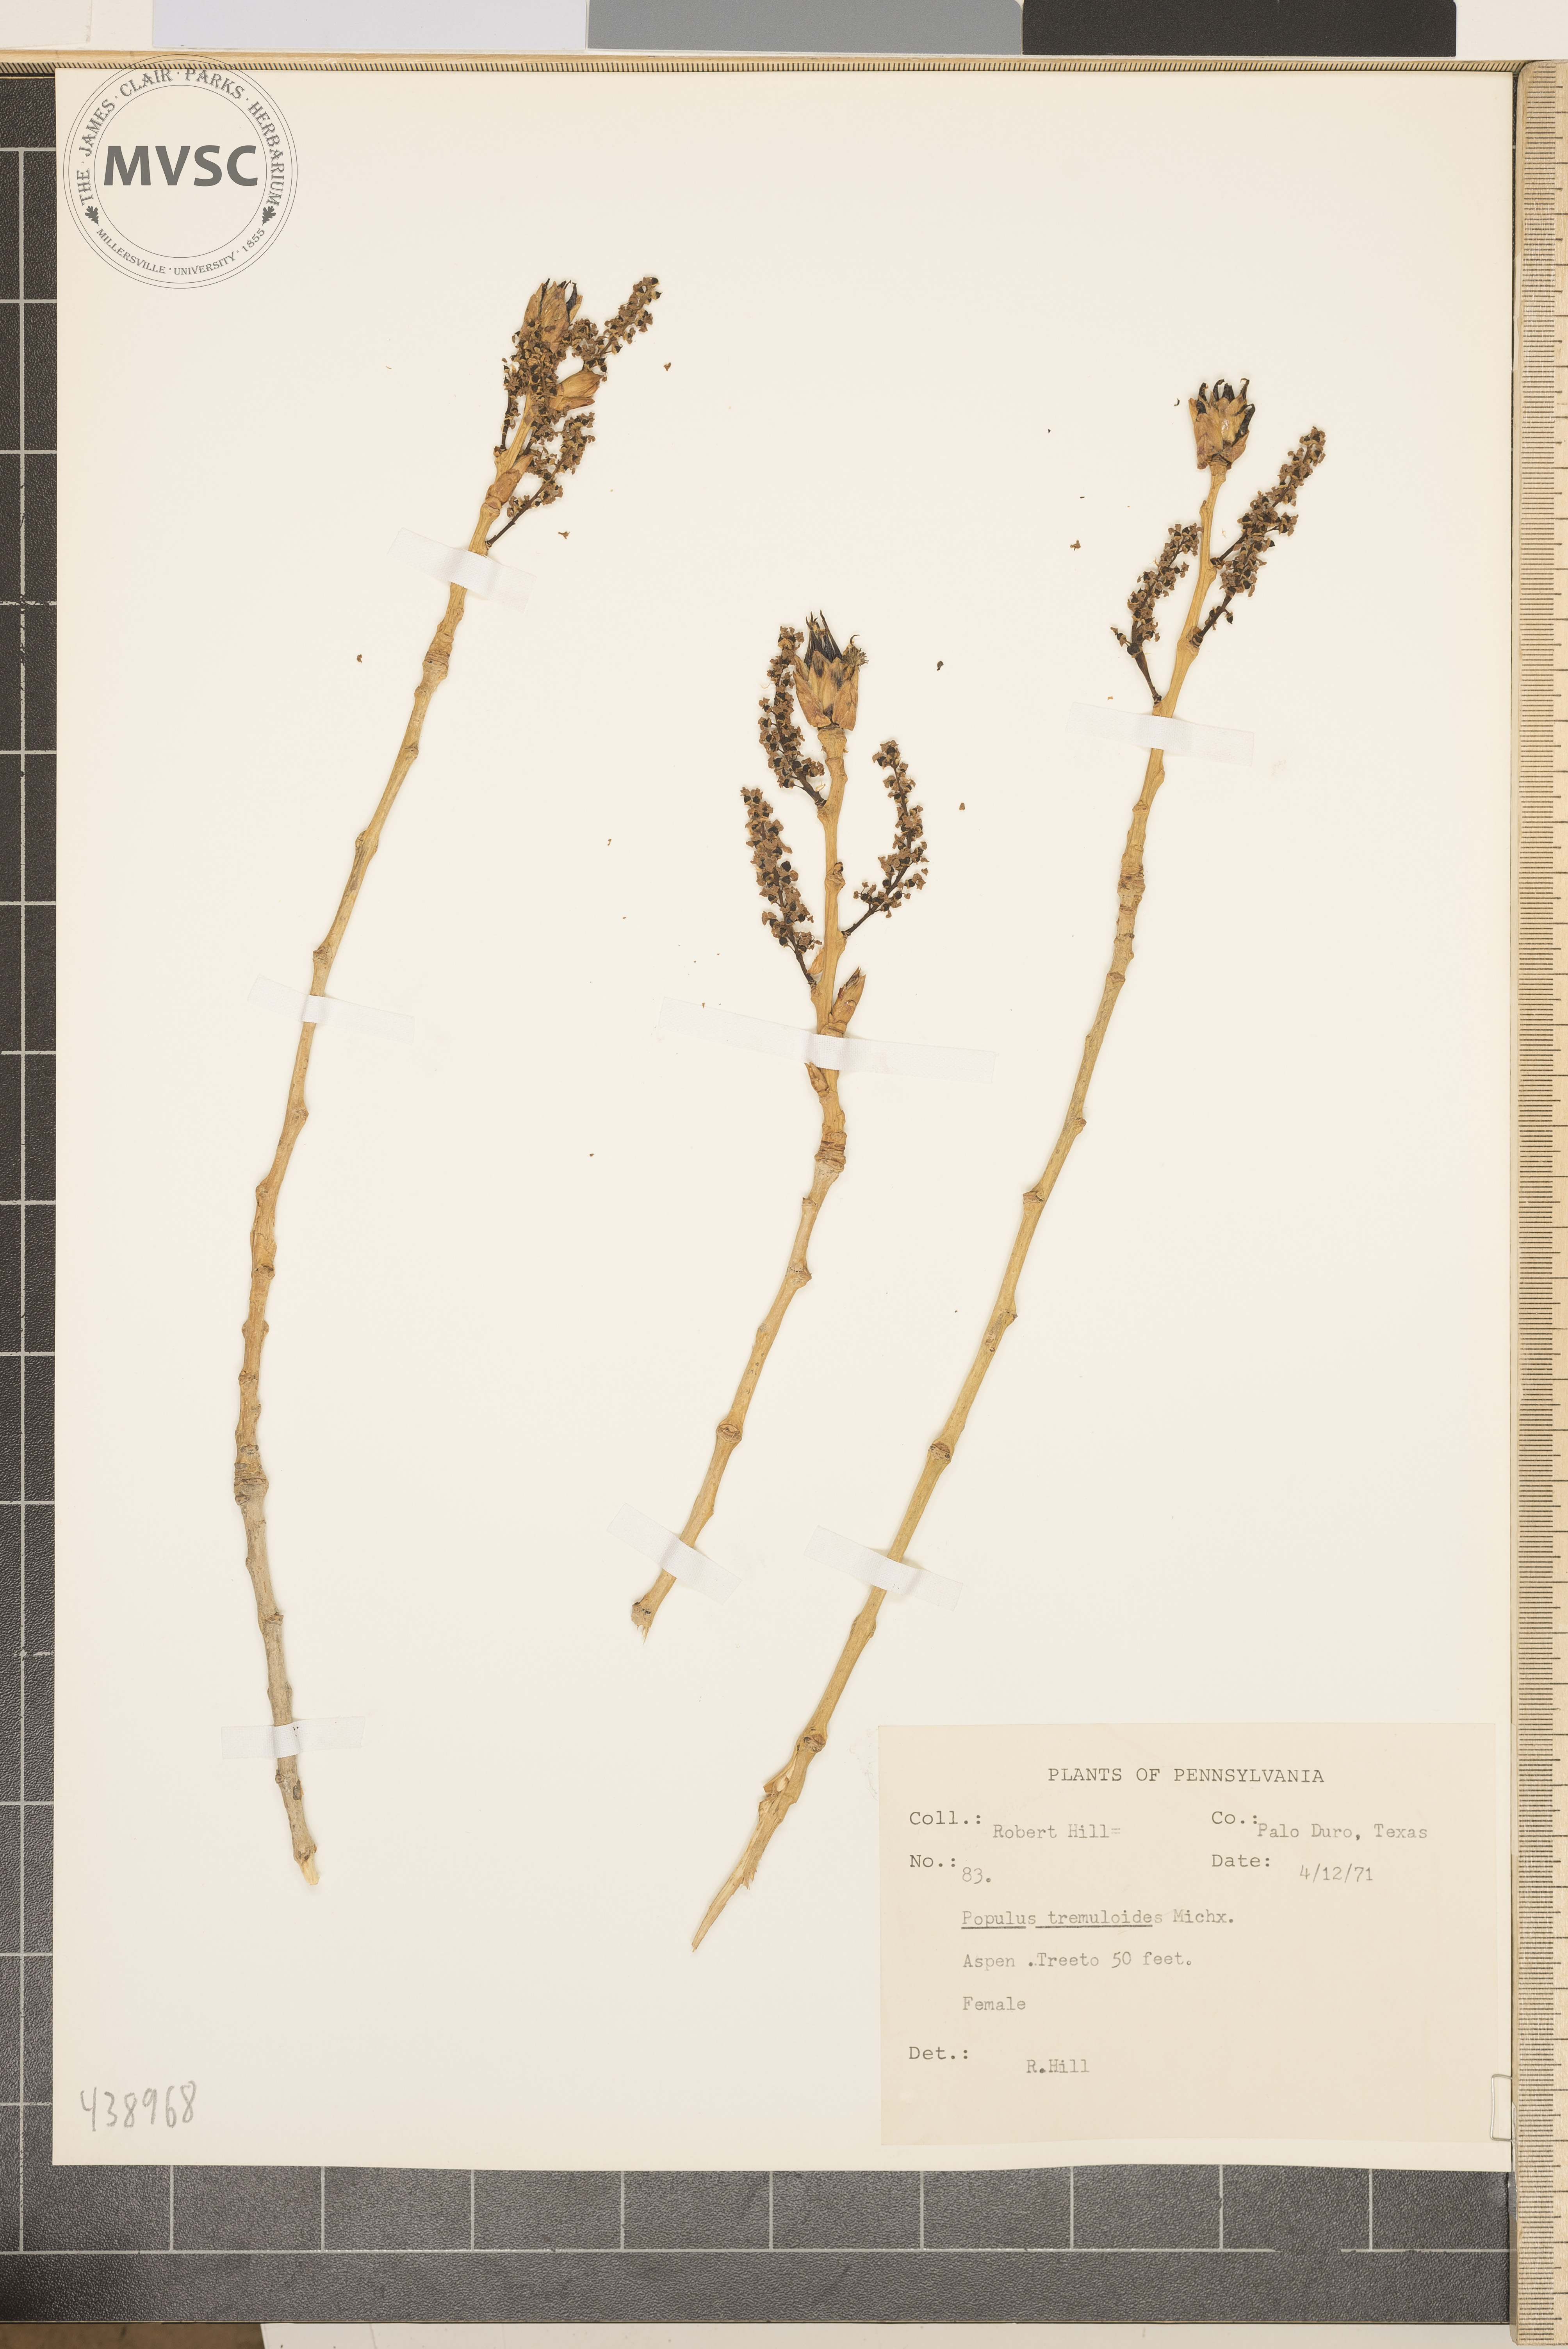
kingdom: Plantae
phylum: Tracheophyta
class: Magnoliopsida
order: Malpighiales
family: Salicaceae
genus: Populus
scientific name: Populus tremuloides
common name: Aspen
